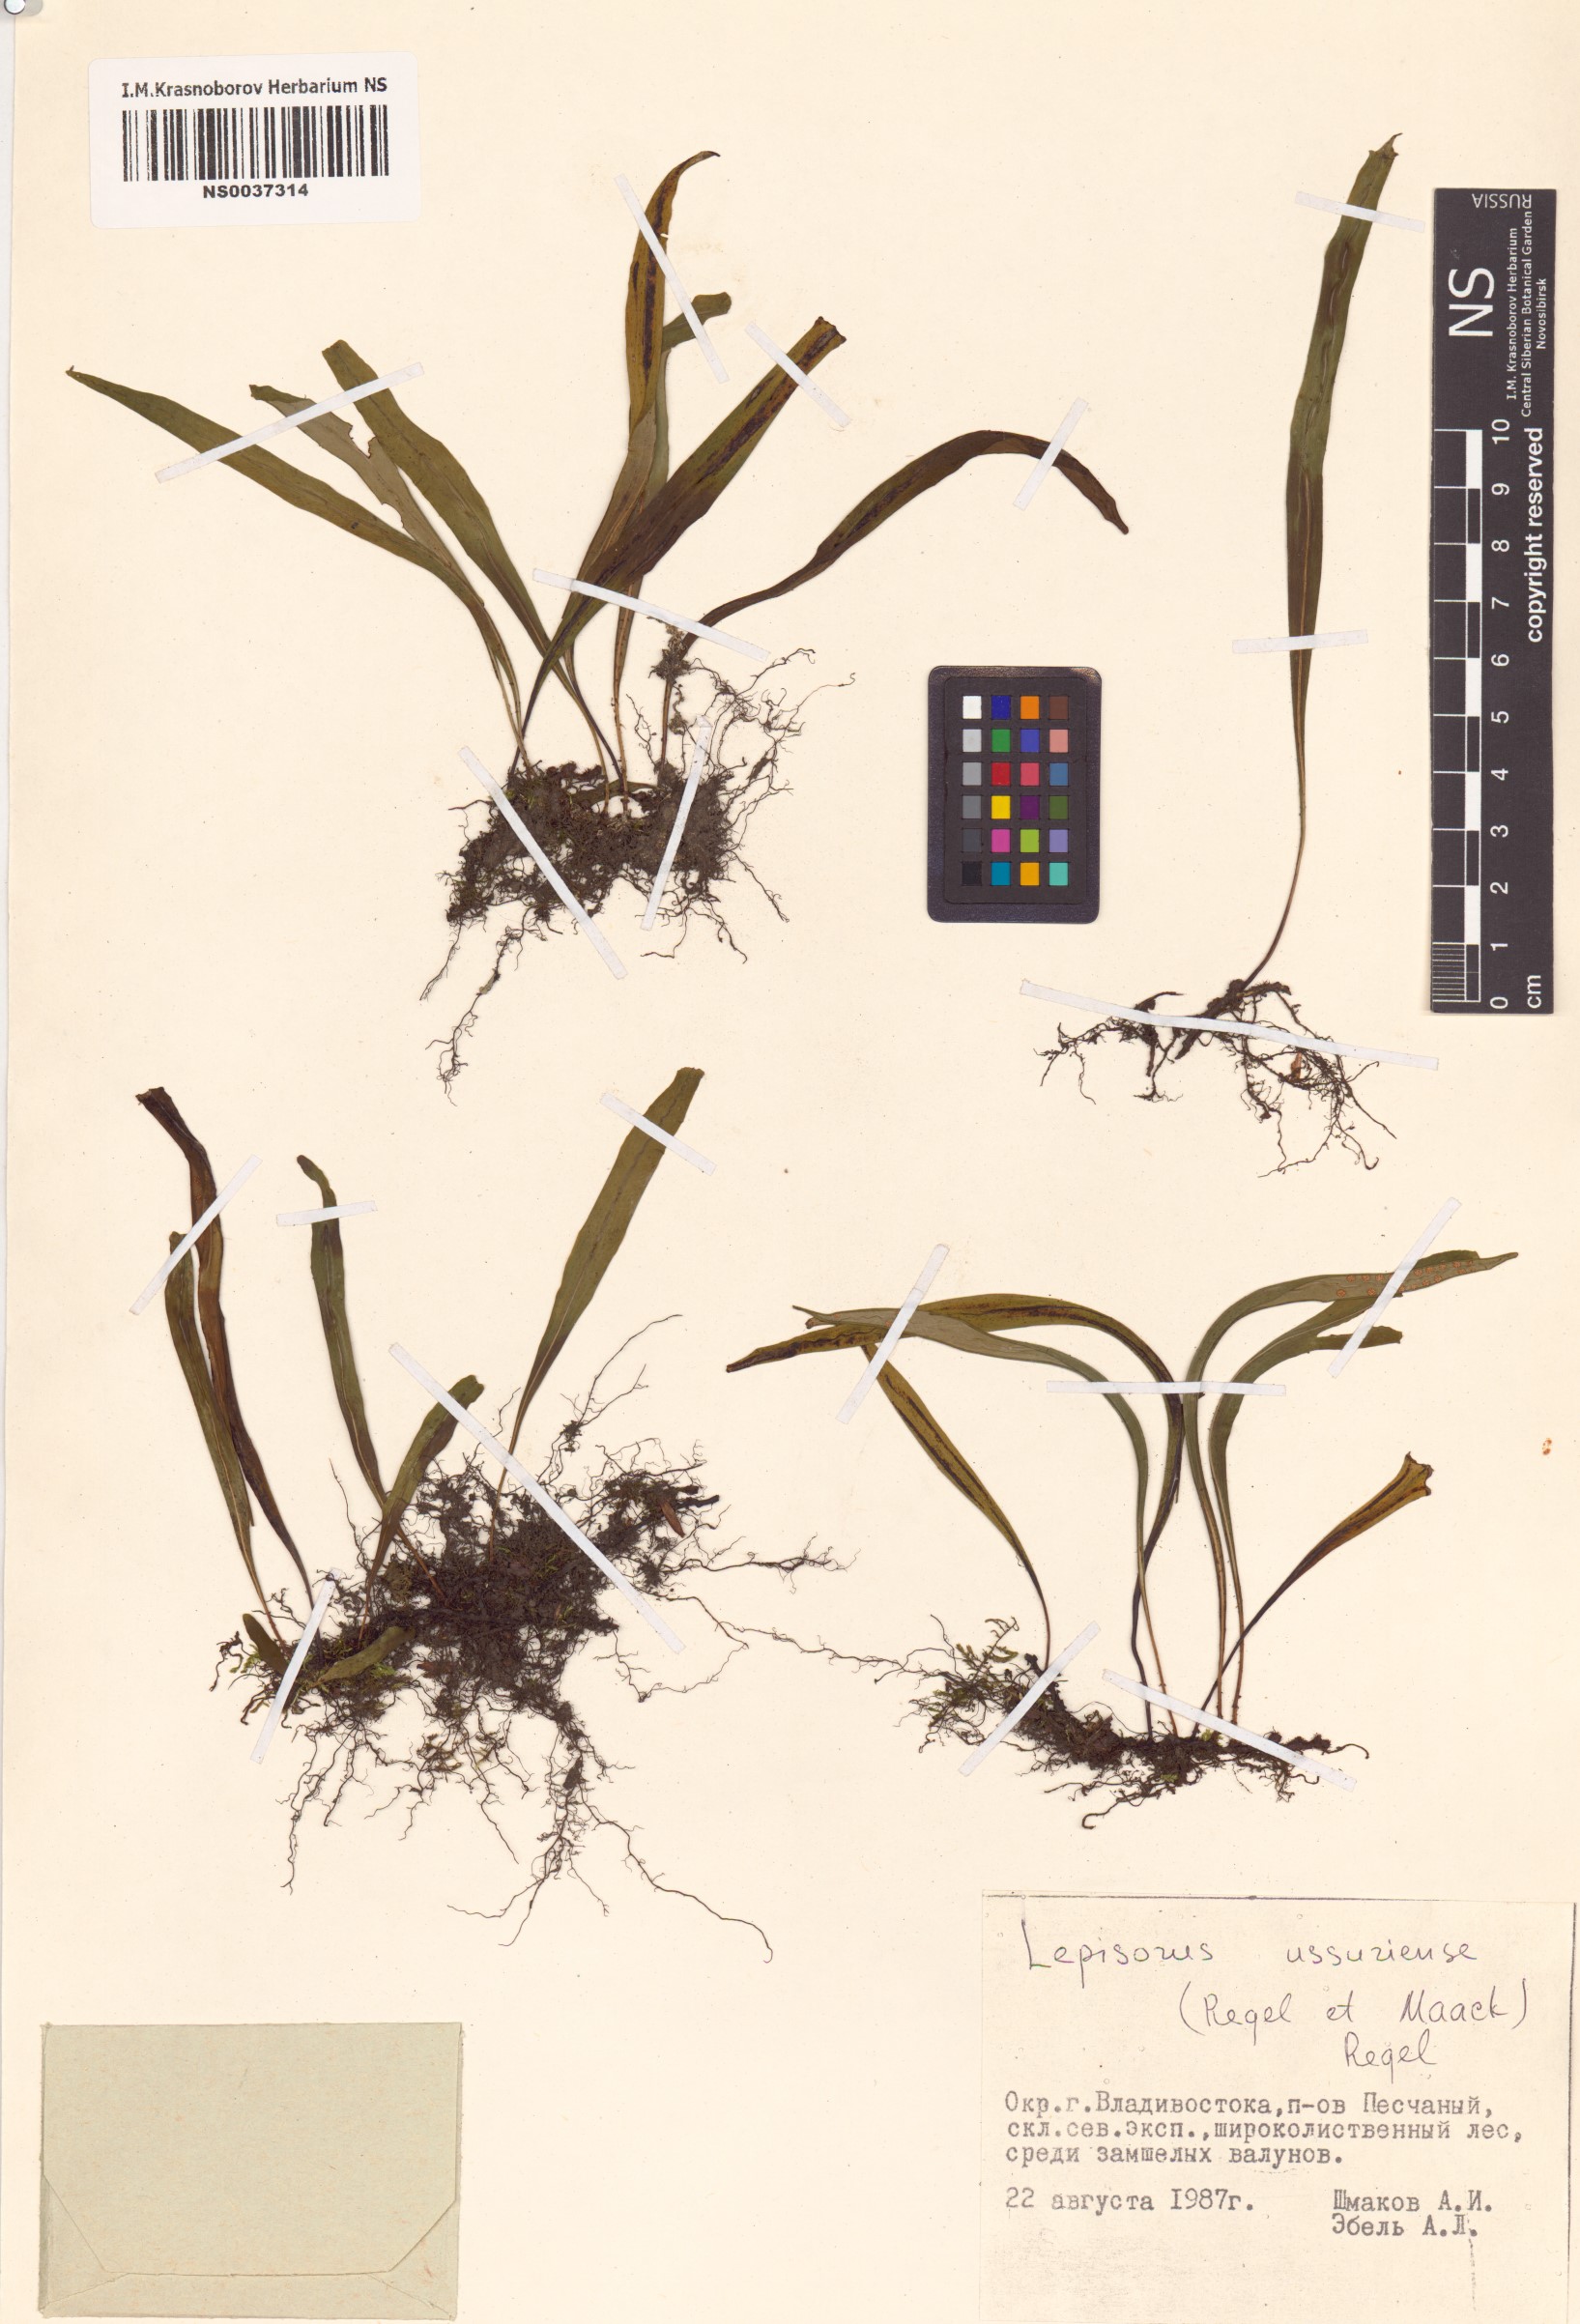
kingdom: Plantae
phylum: Tracheophyta
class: Polypodiopsida
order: Polypodiales
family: Polypodiaceae
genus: Lepisorus
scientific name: Lepisorus ussuriensis
